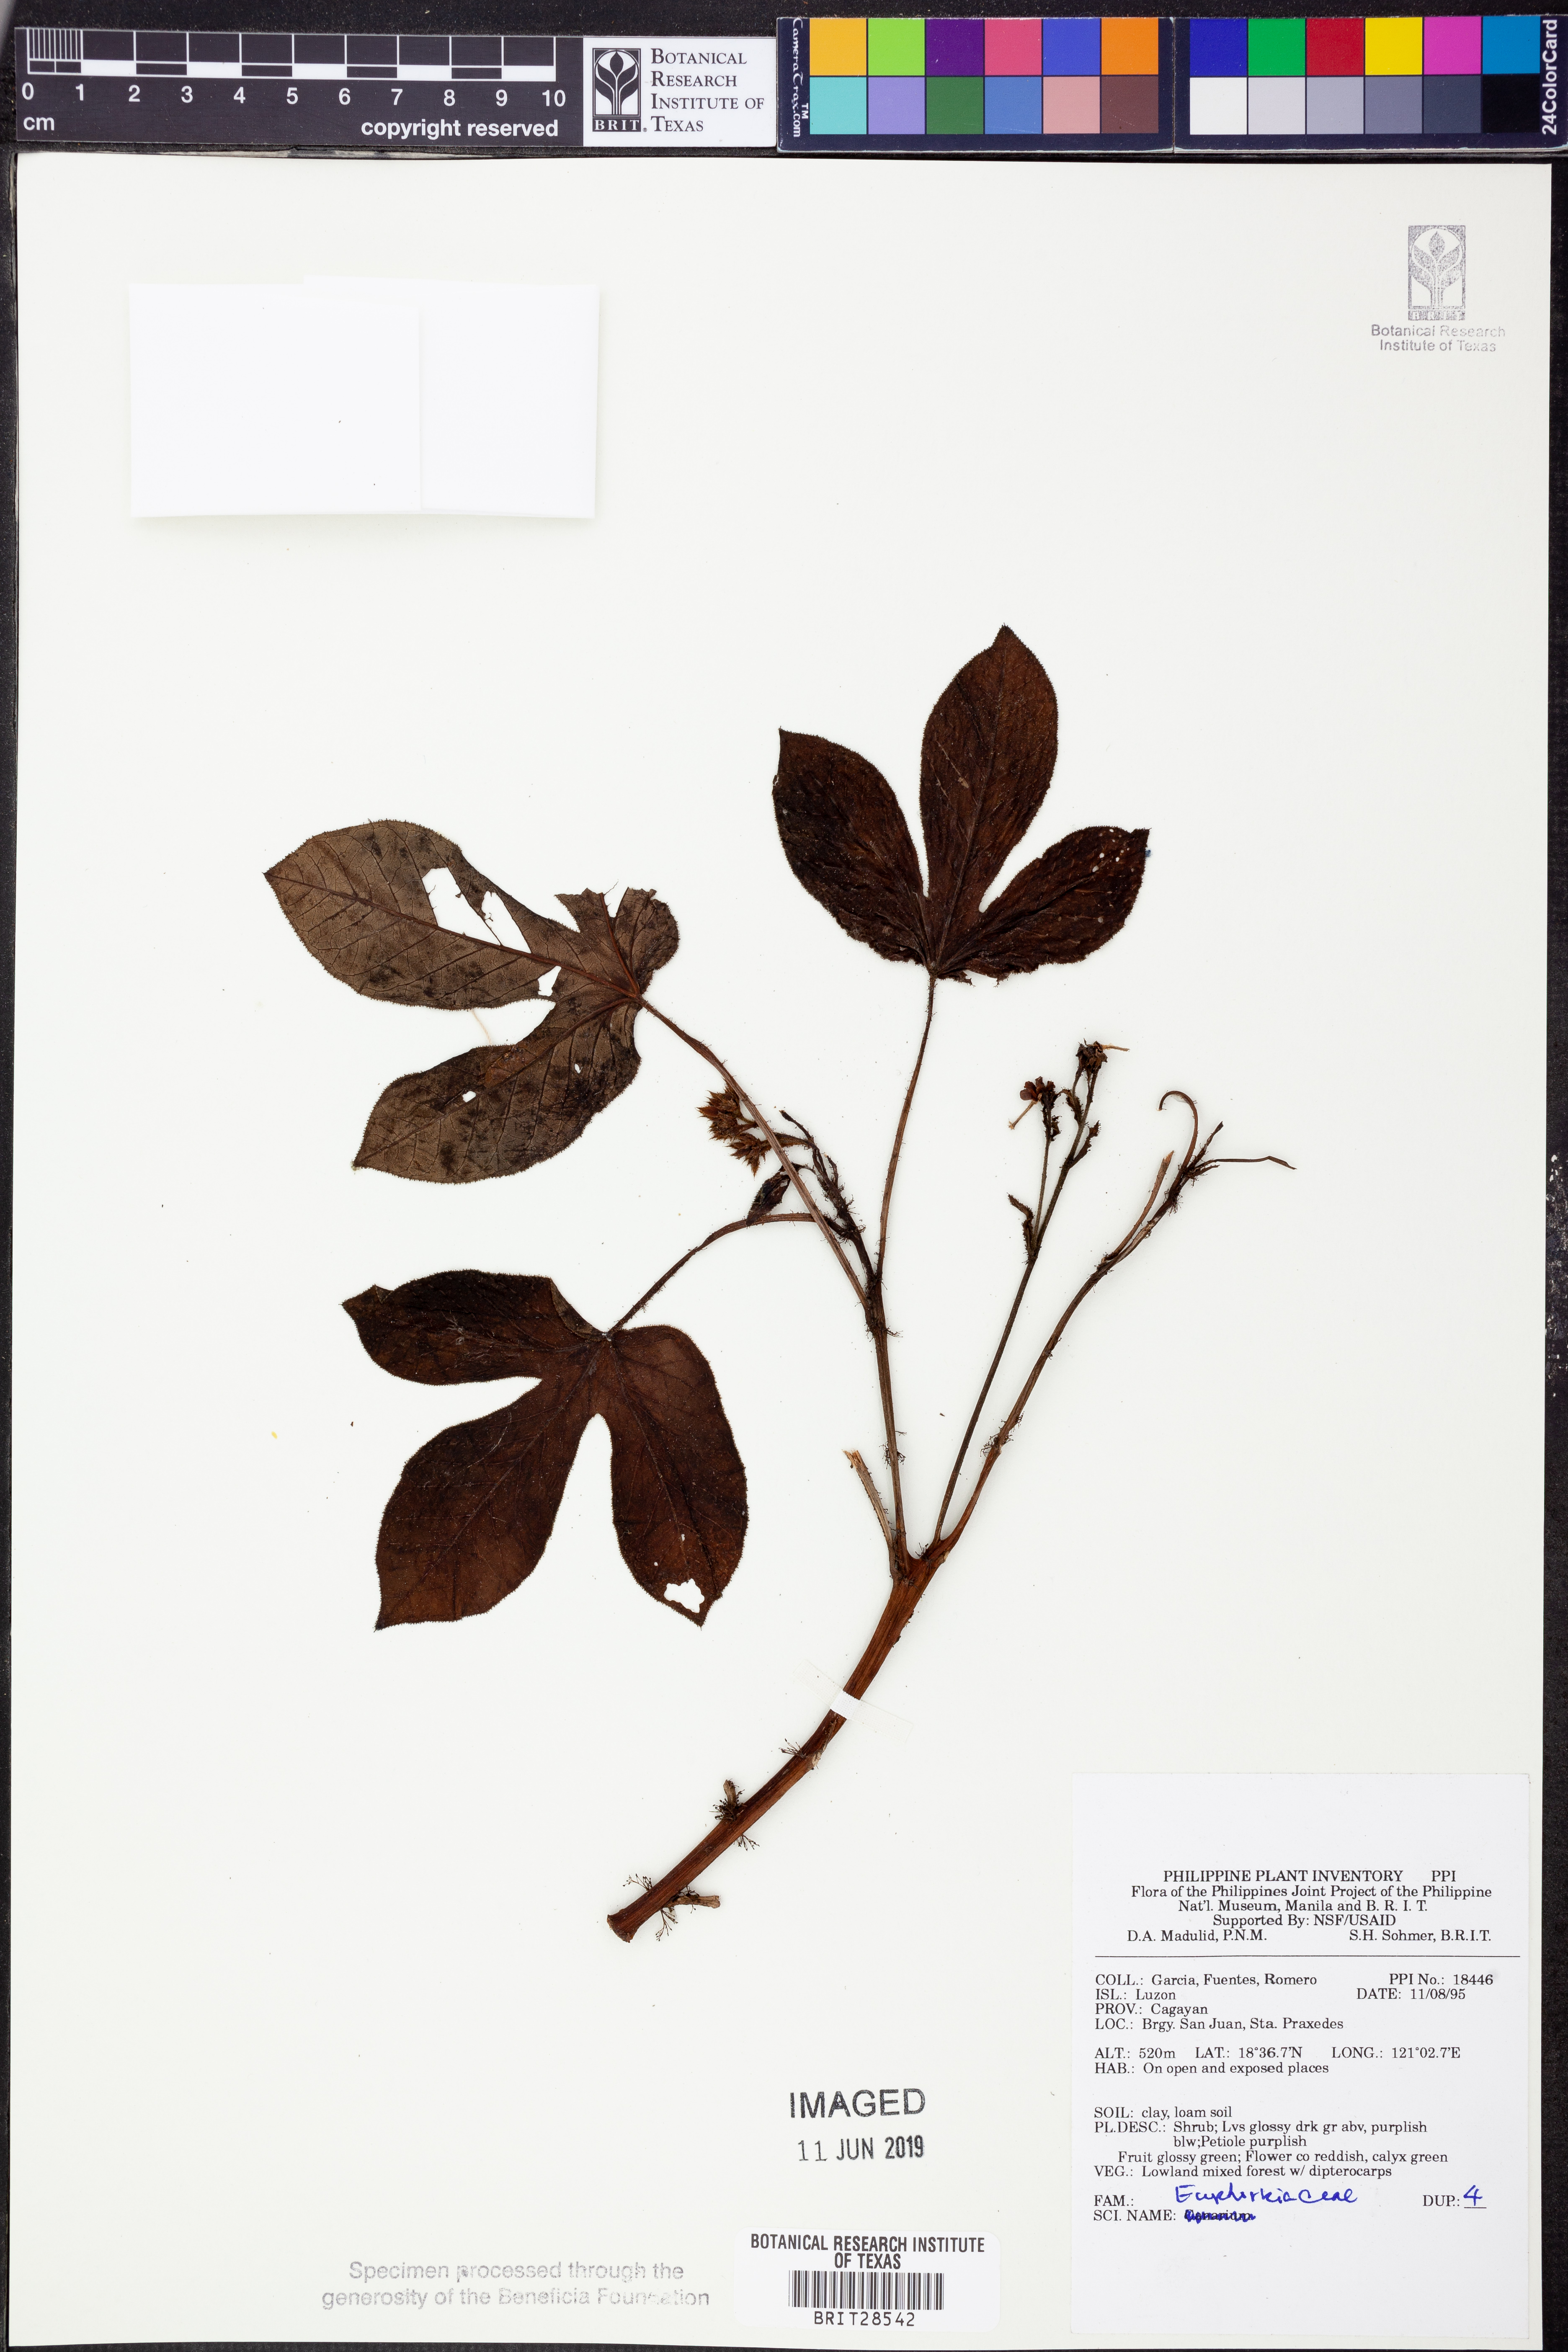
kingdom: Plantae
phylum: Tracheophyta
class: Magnoliopsida
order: Malpighiales
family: Euphorbiaceae
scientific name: Euphorbiaceae
